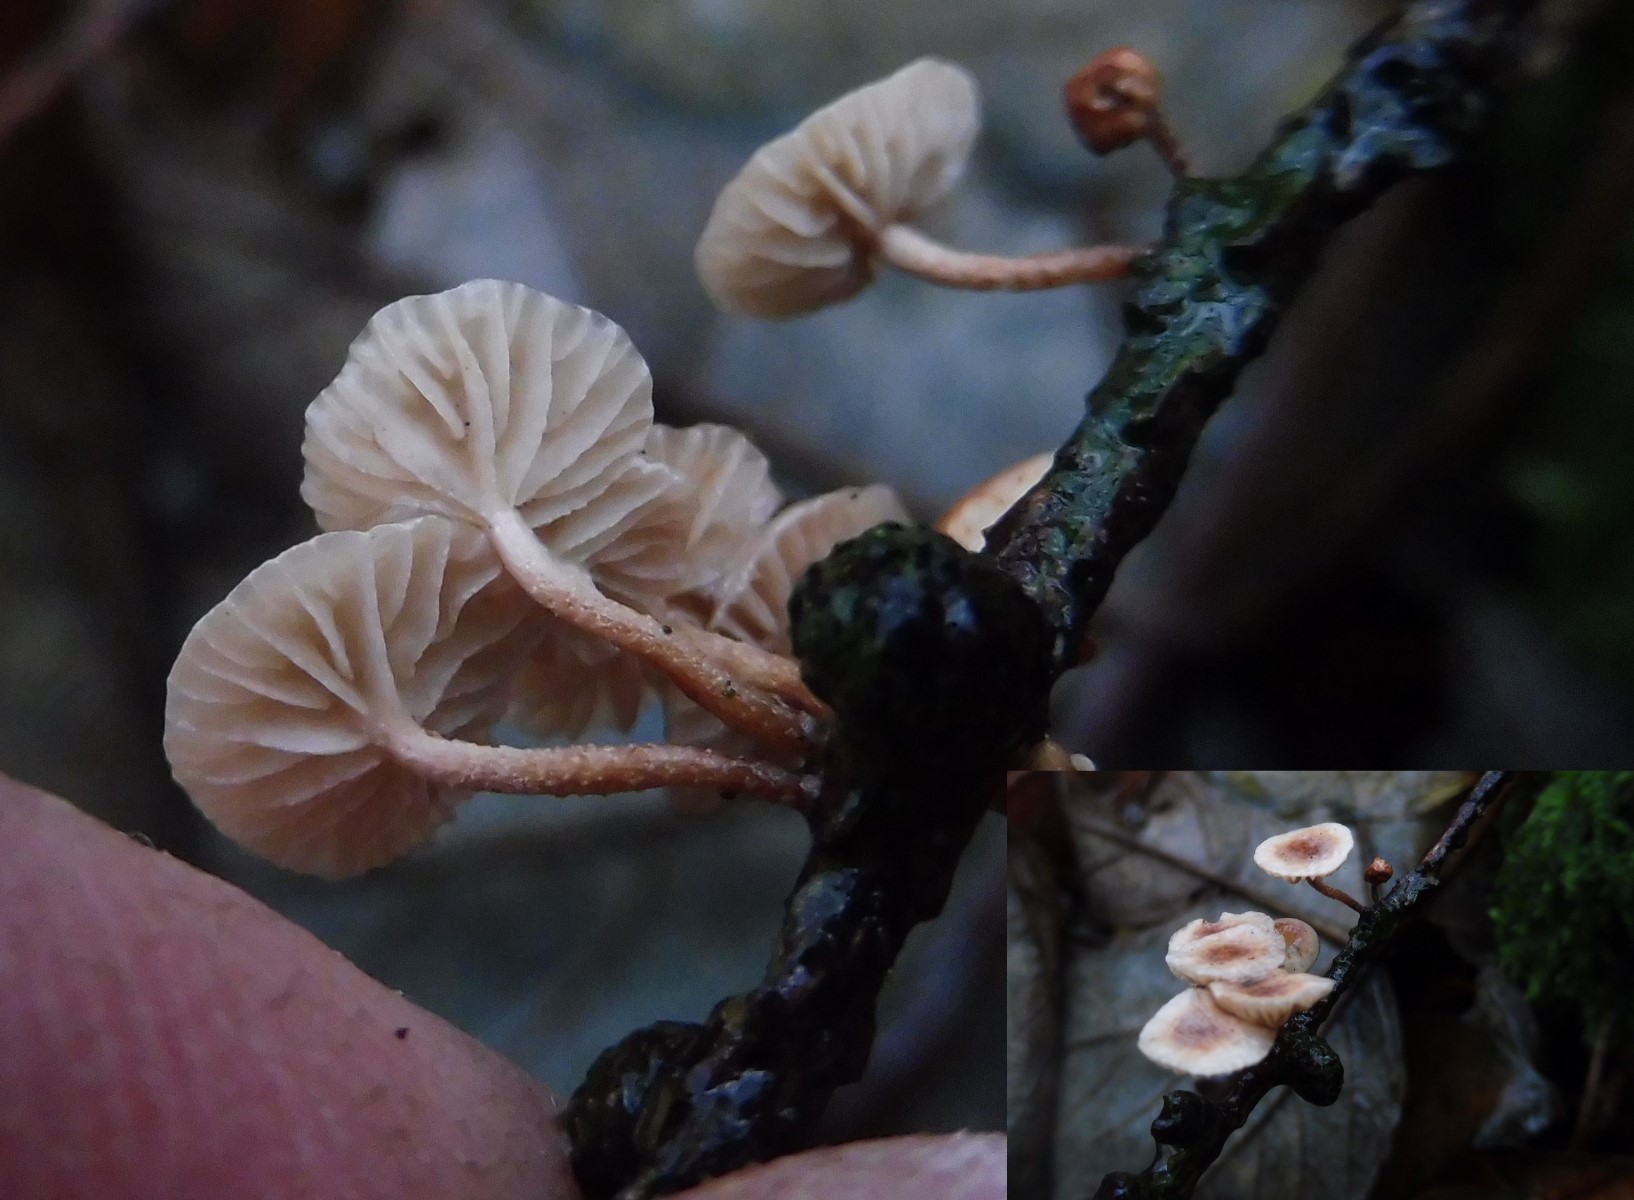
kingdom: Fungi
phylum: Basidiomycota
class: Agaricomycetes
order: Agaricales
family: Omphalotaceae
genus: Collybiopsis
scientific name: Collybiopsis ramealis
